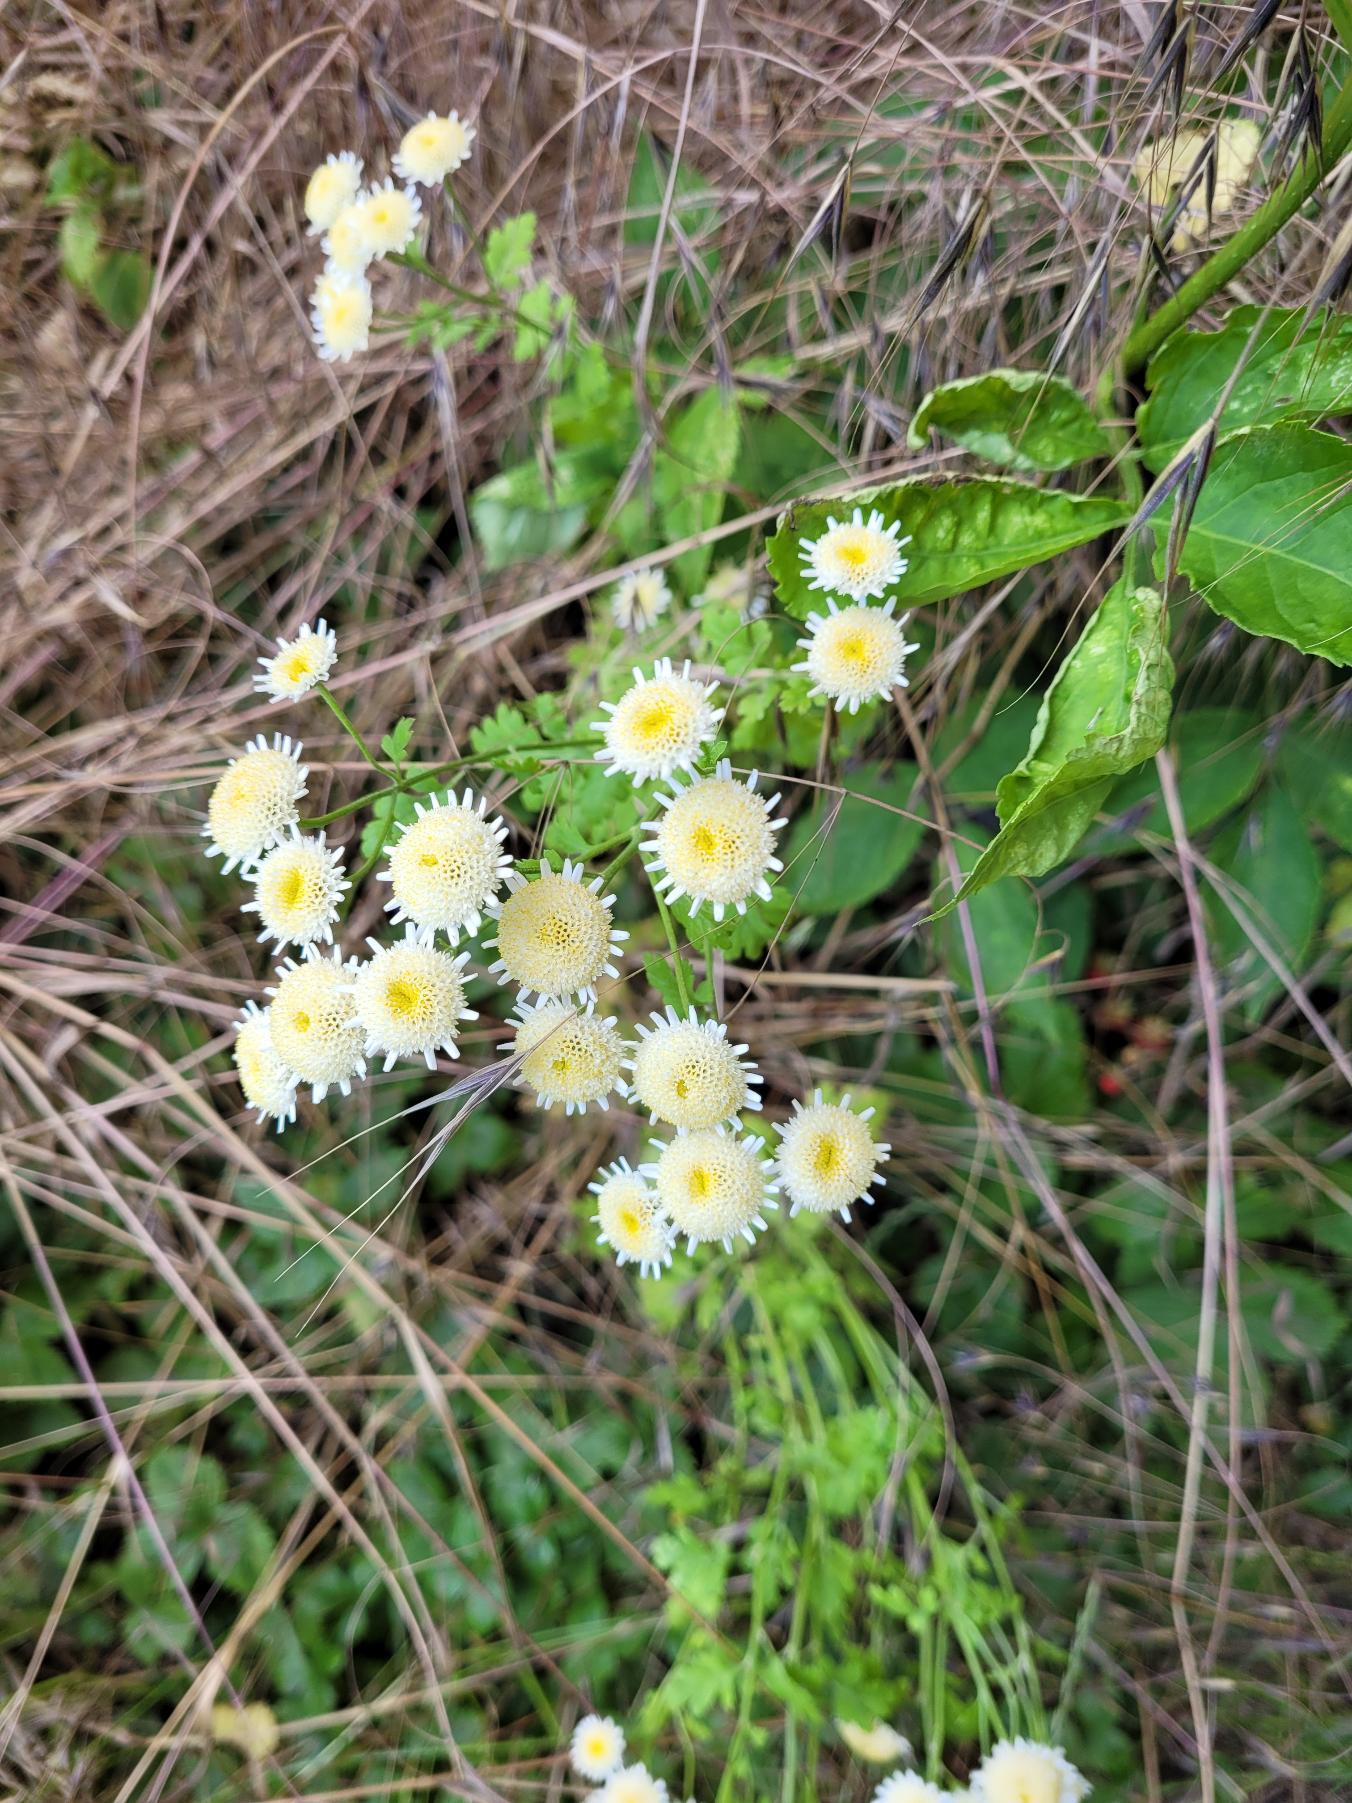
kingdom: Plantae
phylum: Tracheophyta
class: Magnoliopsida
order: Asterales
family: Asteraceae
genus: Tanacetum
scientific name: Tanacetum parthenium
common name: Matrem
